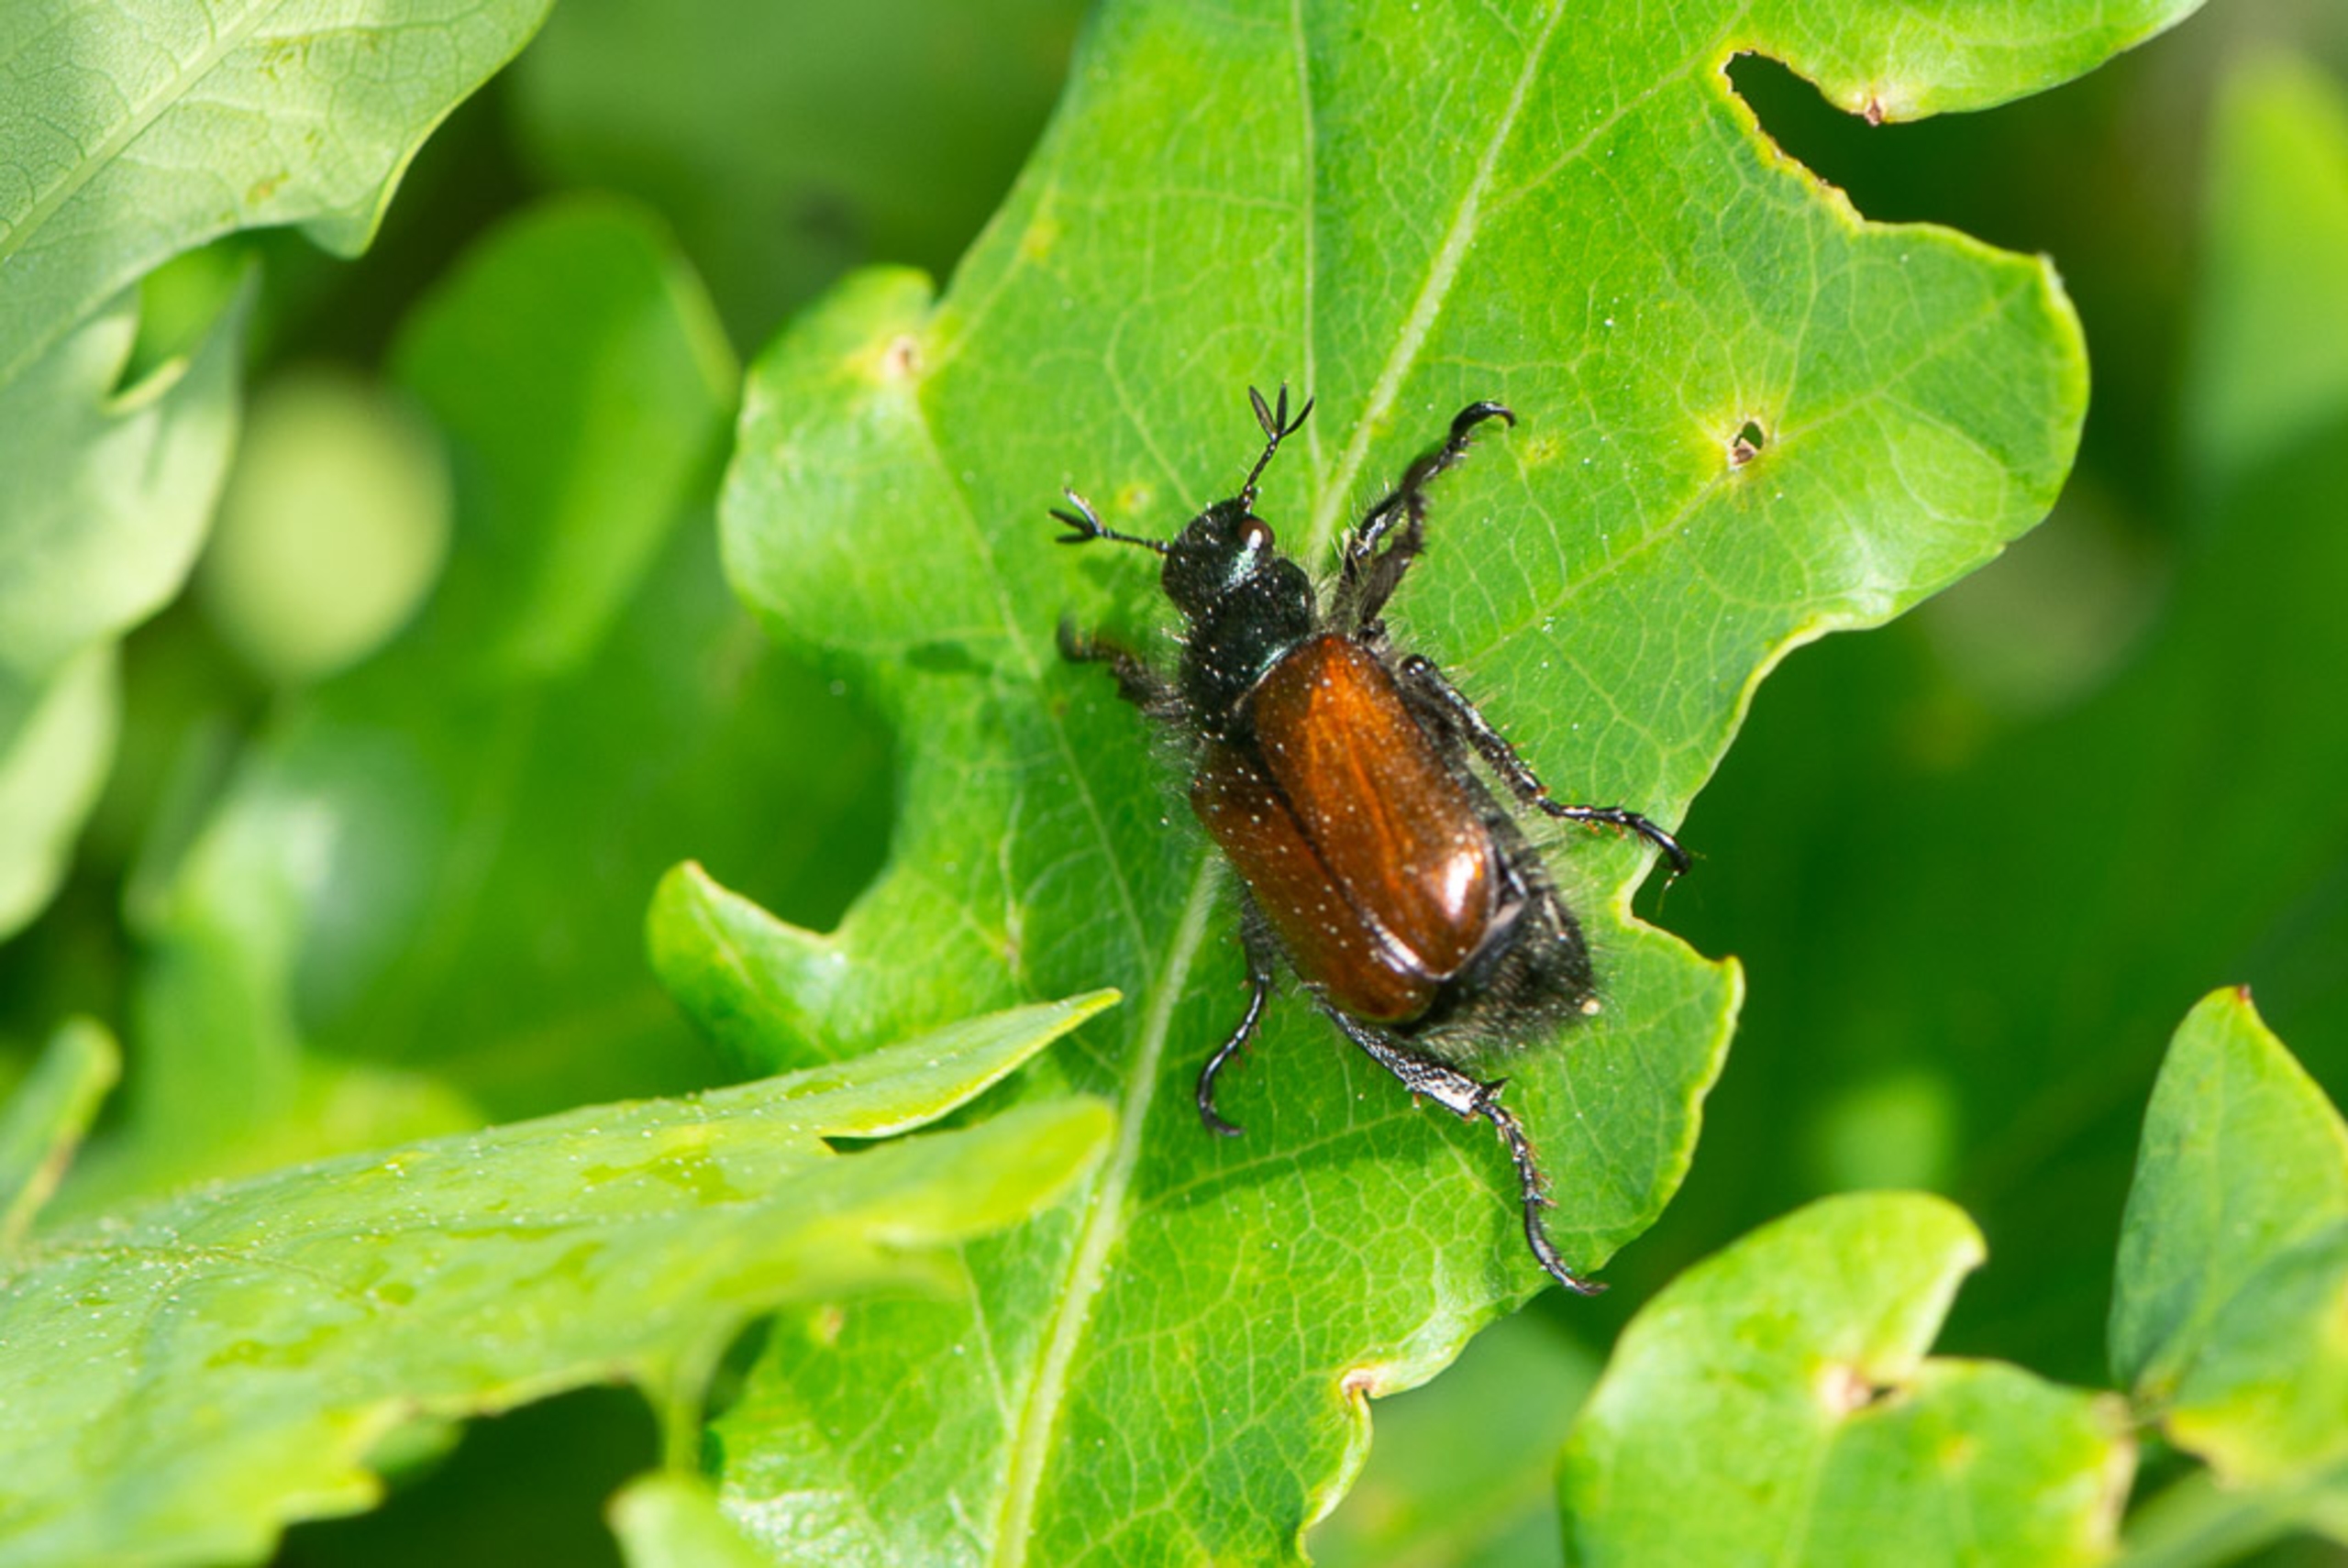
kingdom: Animalia
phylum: Arthropoda
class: Insecta
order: Coleoptera
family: Scarabaeidae
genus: Phyllopertha
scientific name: Phyllopertha horticola
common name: Gåsebille
